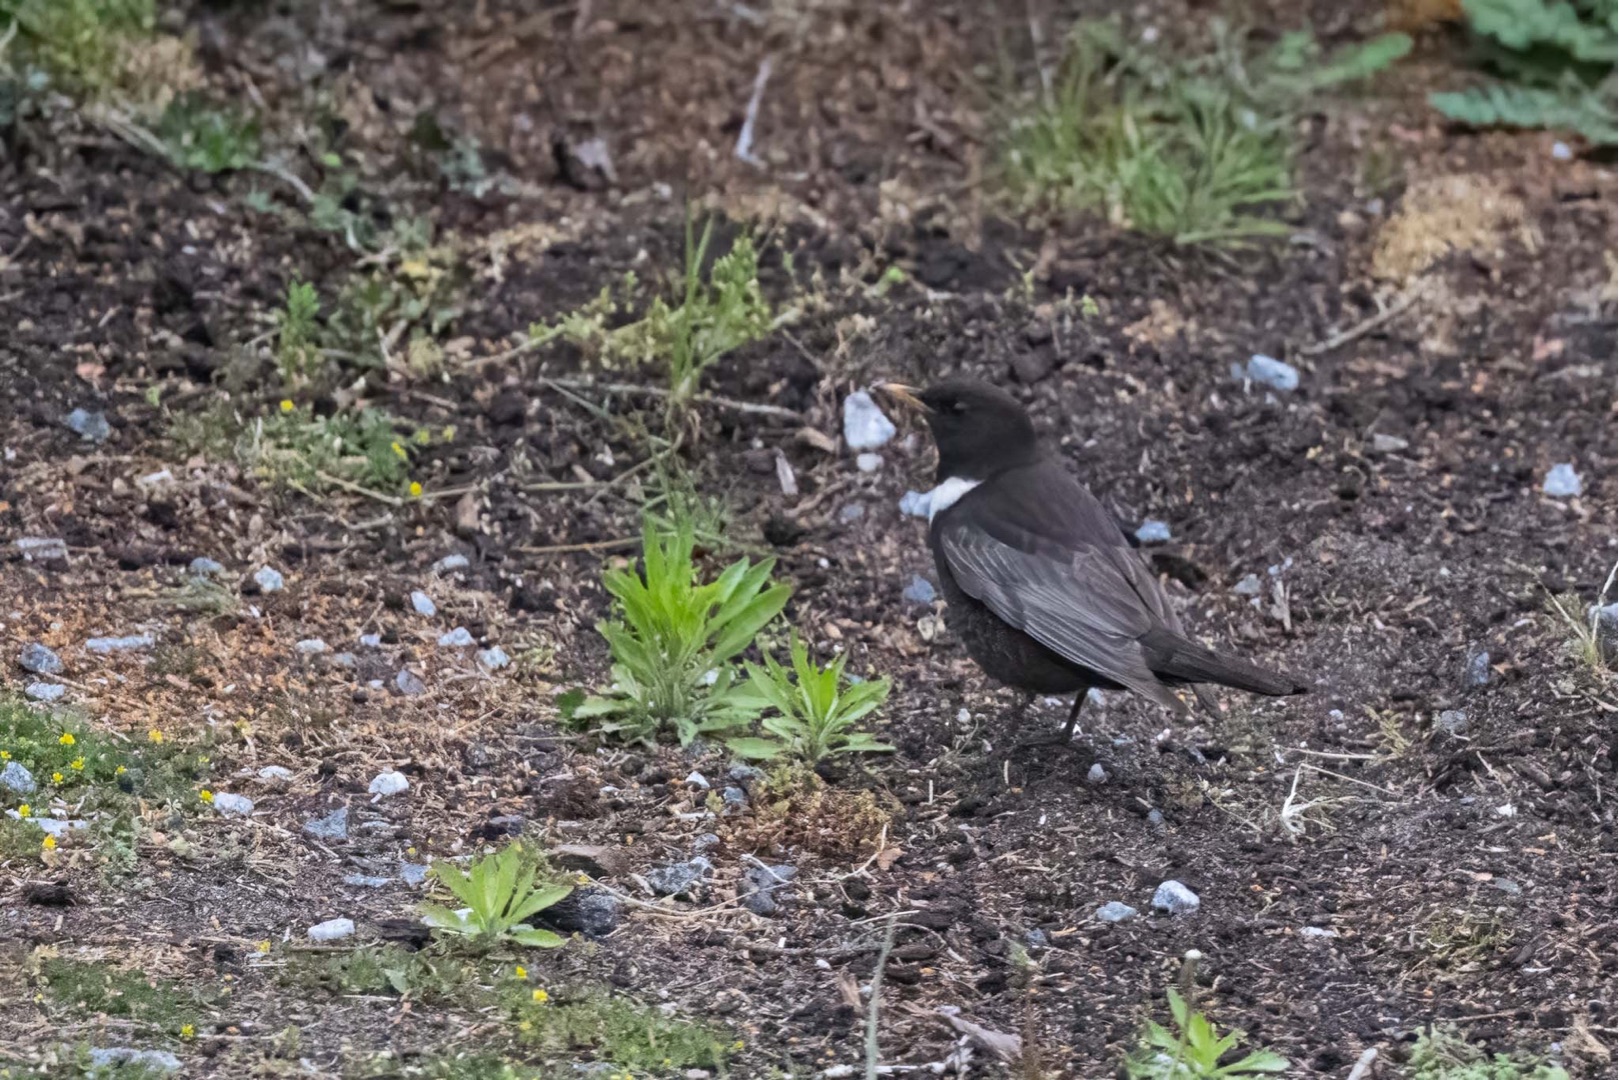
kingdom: Animalia
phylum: Chordata
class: Aves
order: Passeriformes
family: Turdidae
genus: Turdus
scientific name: Turdus torquatus
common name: Ringdrossel
